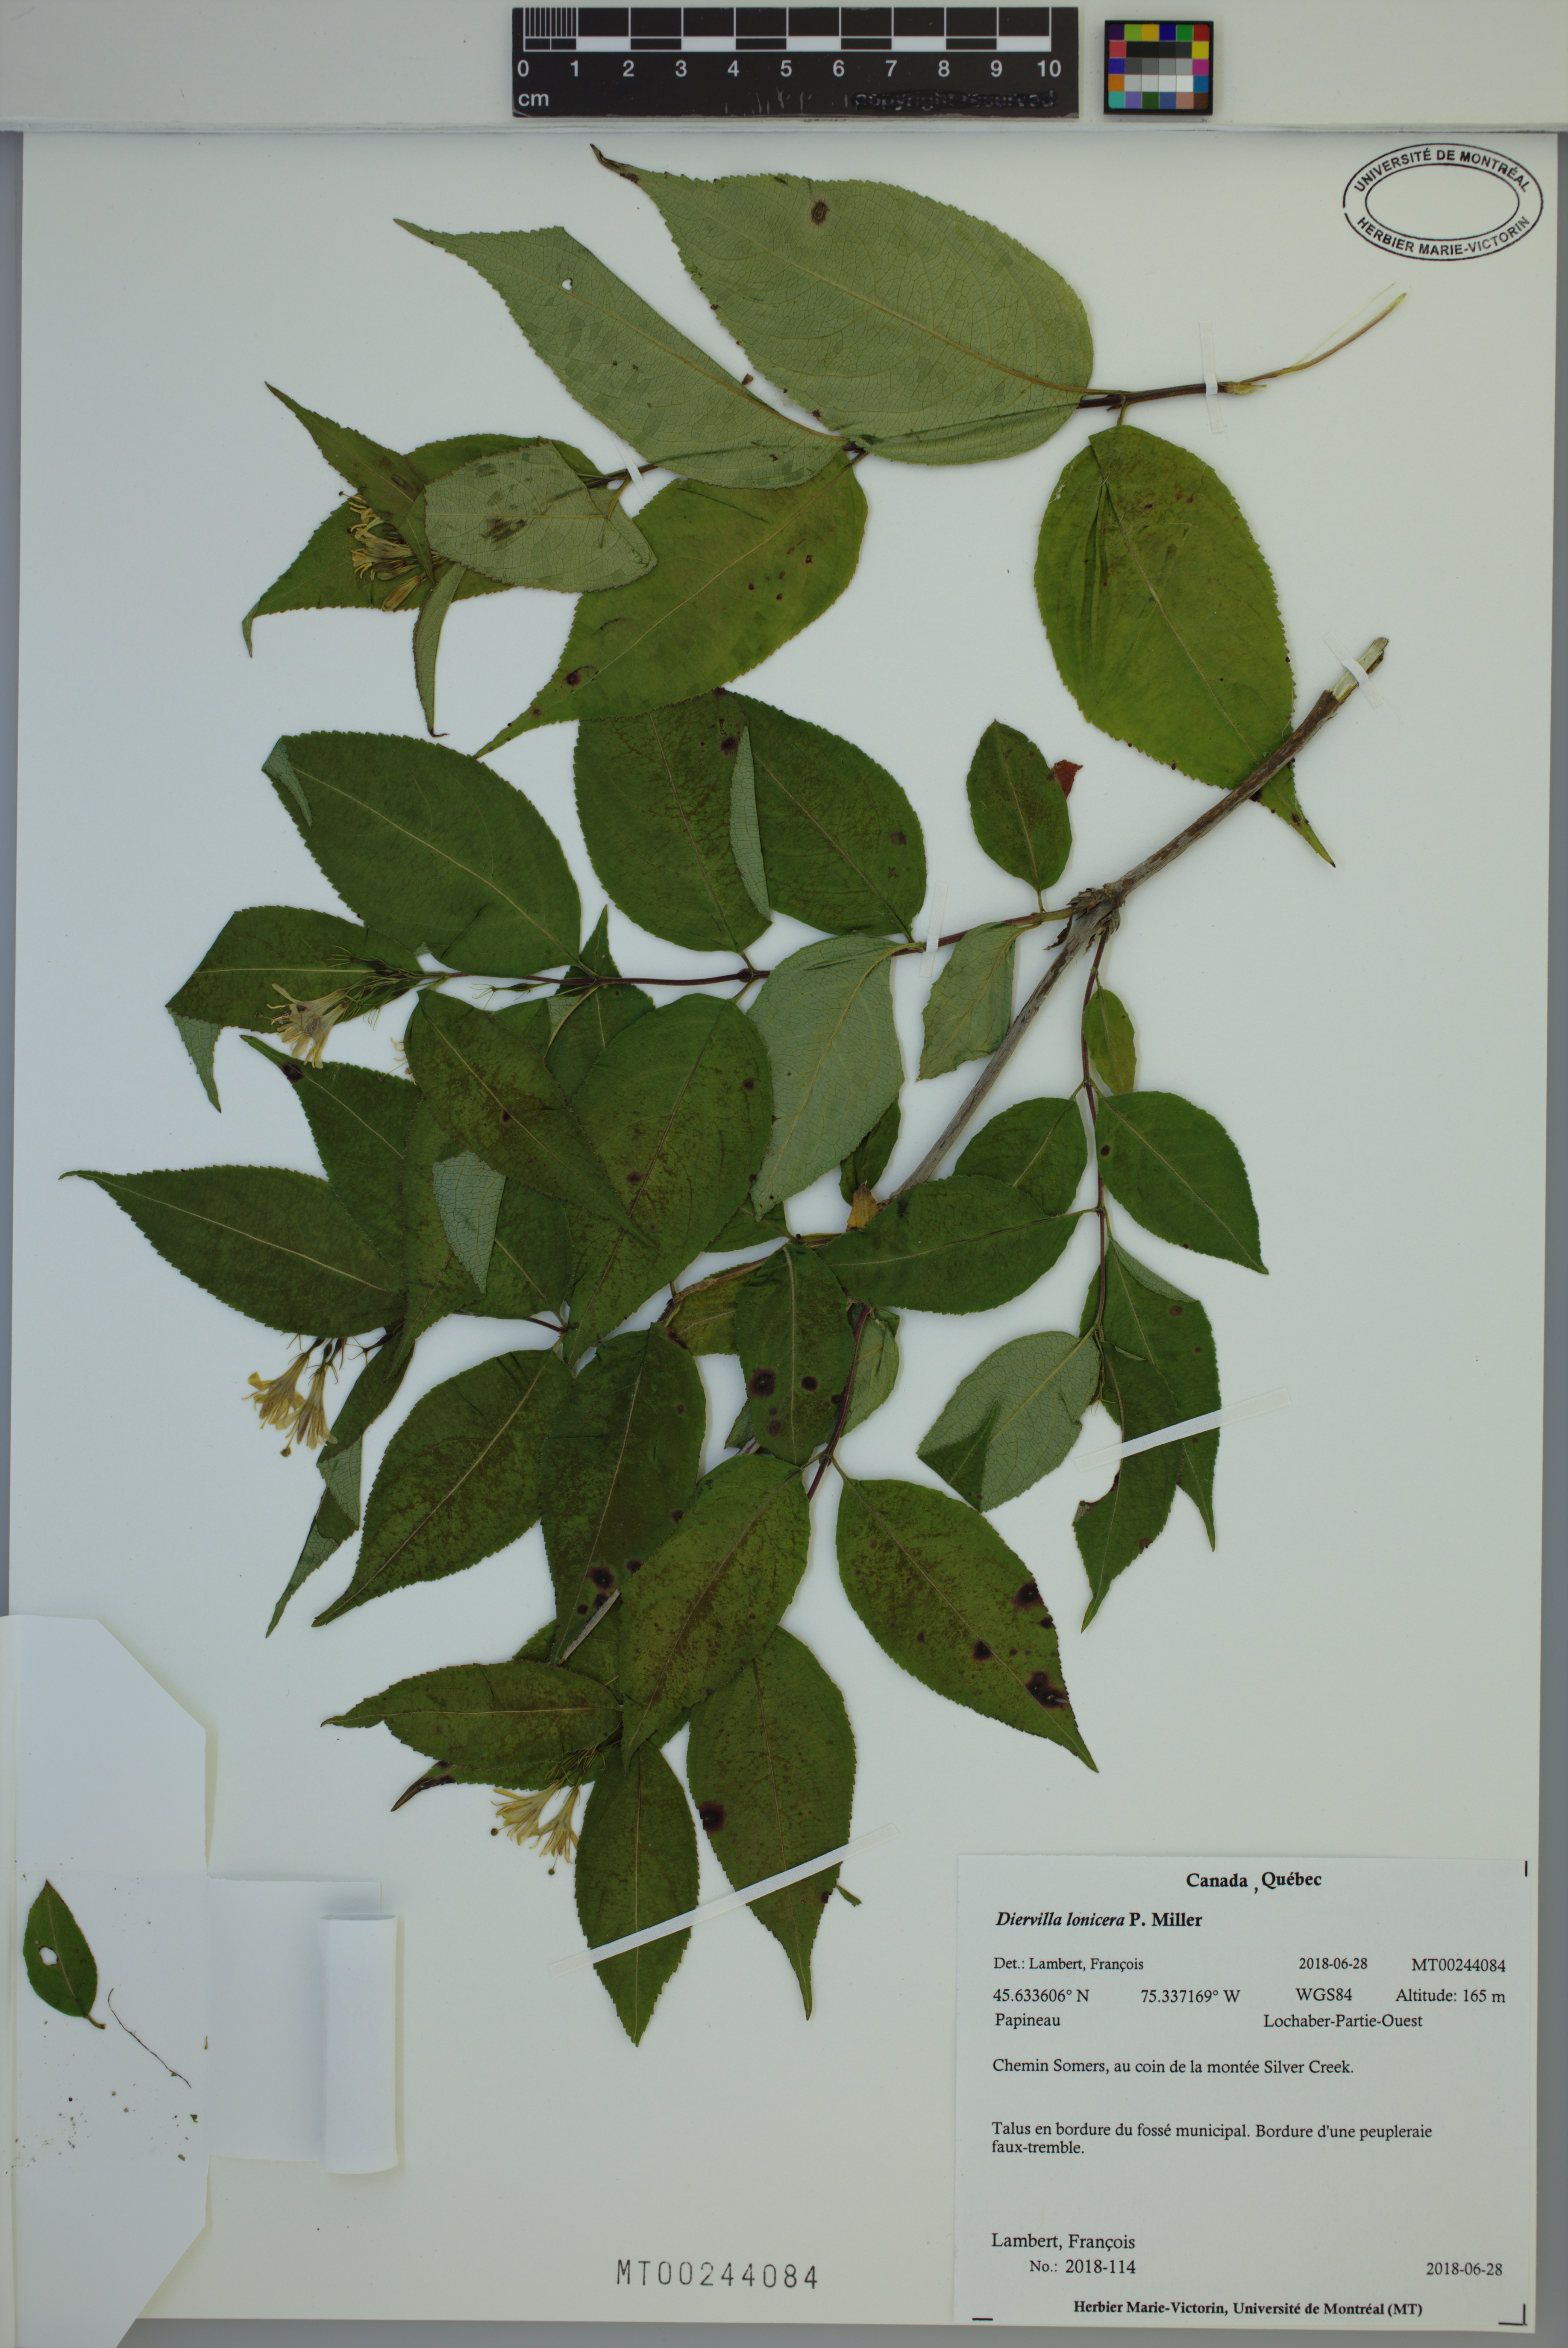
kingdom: Plantae
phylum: Tracheophyta
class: Magnoliopsida
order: Dipsacales
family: Caprifoliaceae
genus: Diervilla
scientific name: Diervilla lonicera
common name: Bush-honeysuckle
